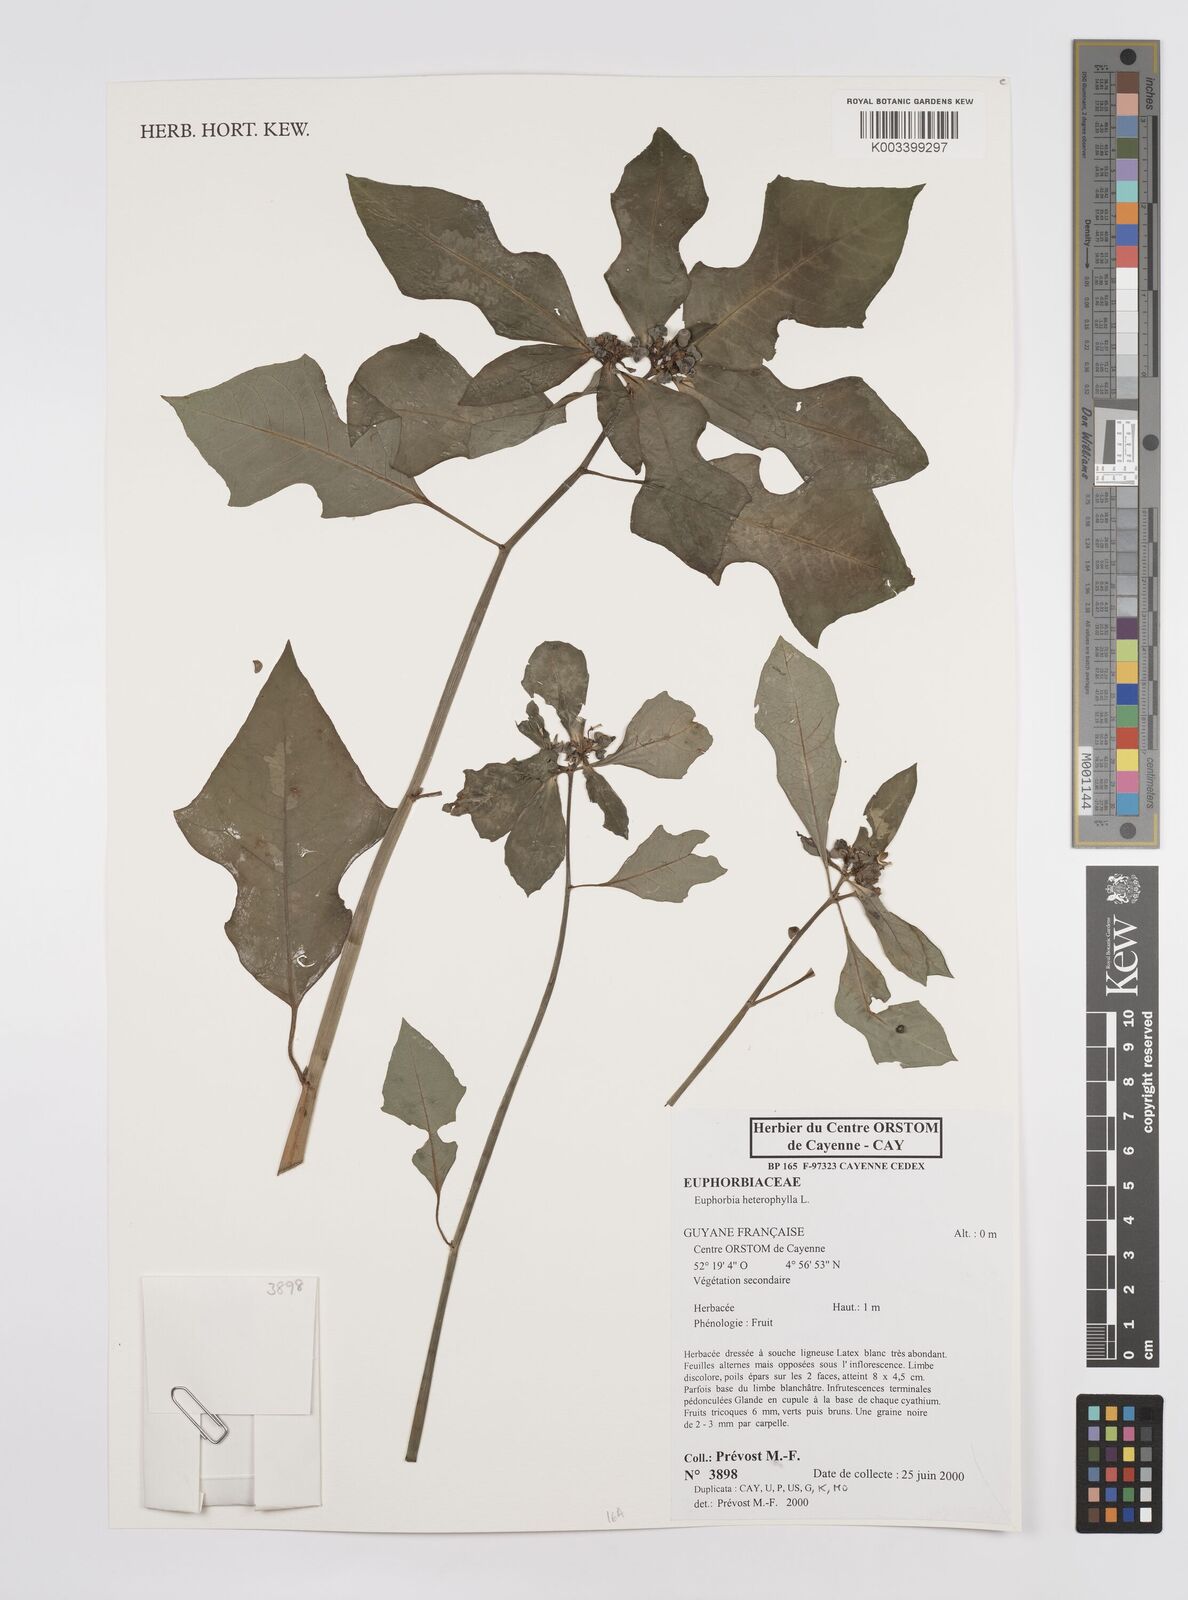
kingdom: Plantae
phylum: Tracheophyta
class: Magnoliopsida
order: Malpighiales
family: Euphorbiaceae
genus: Euphorbia
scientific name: Euphorbia heterophylla
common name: Mexican fireplant
